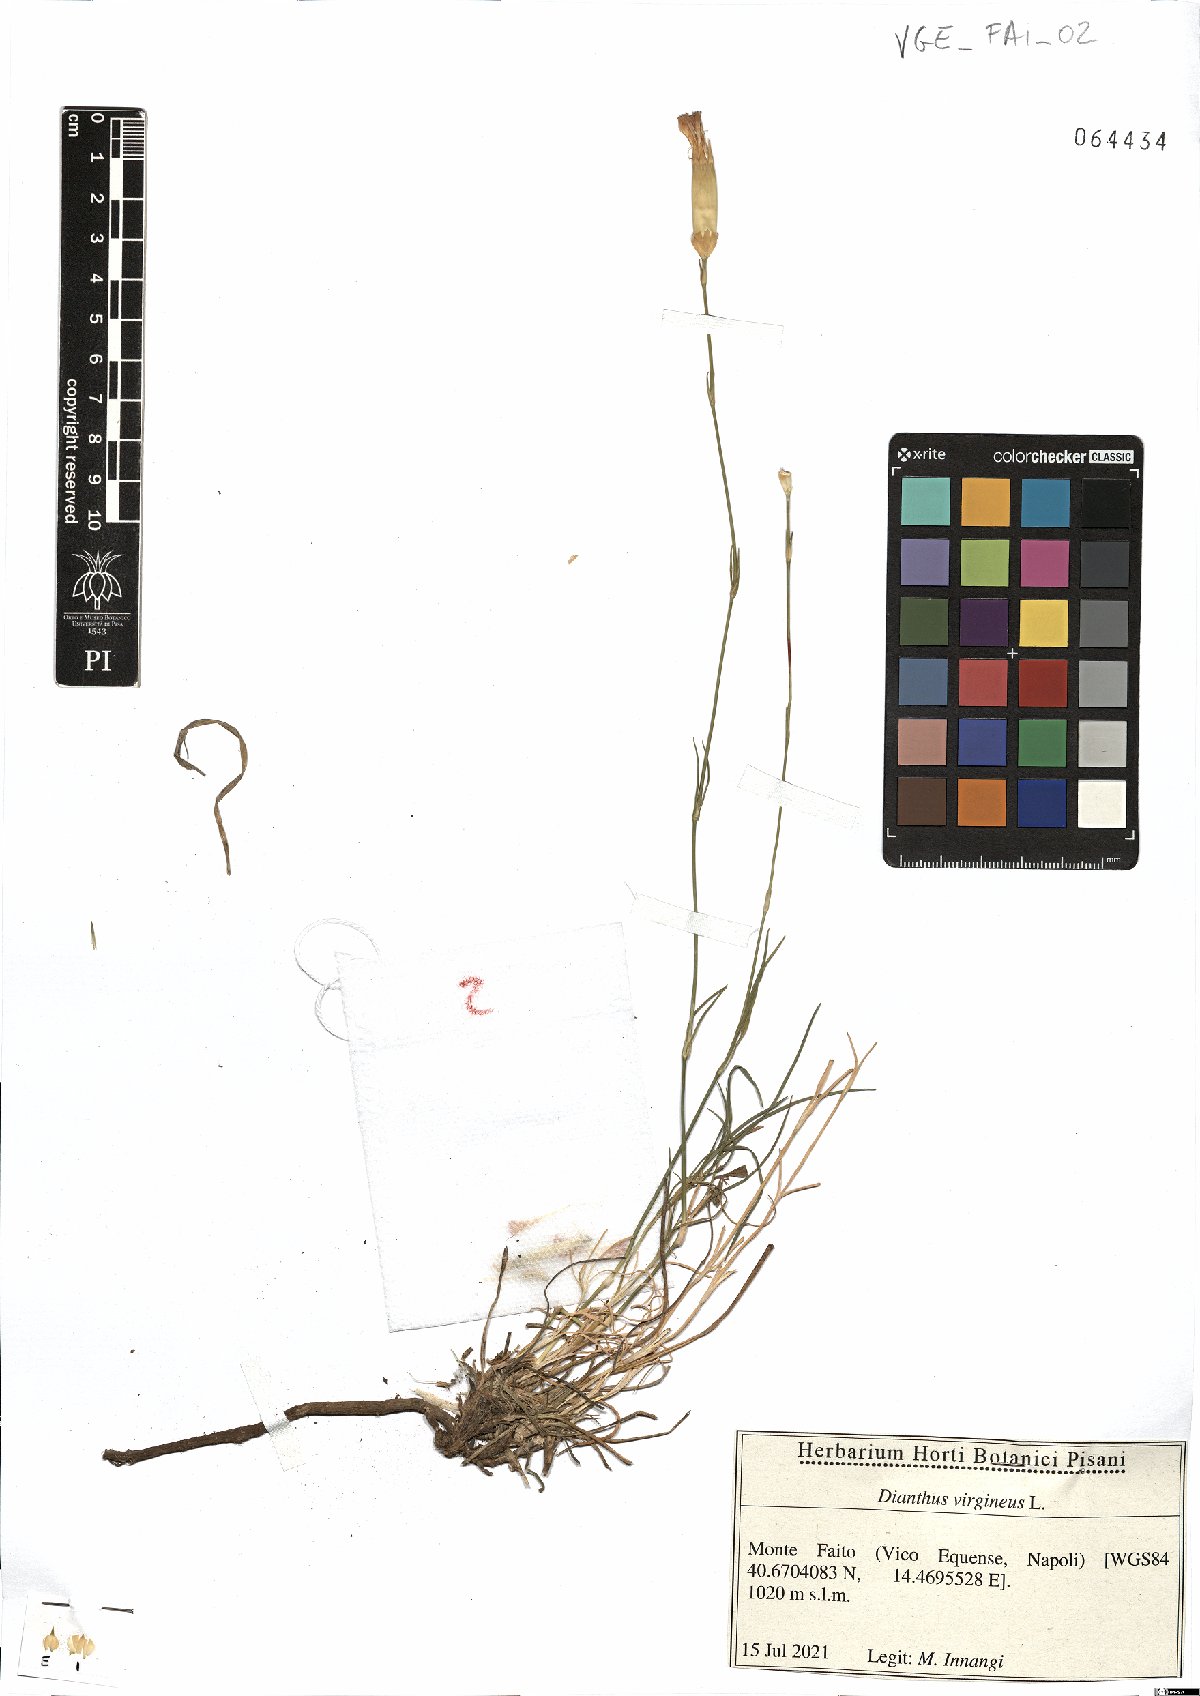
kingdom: Plantae
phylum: Tracheophyta
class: Magnoliopsida
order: Caryophyllales
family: Caryophyllaceae
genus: Dianthus
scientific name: Dianthus virgineus
